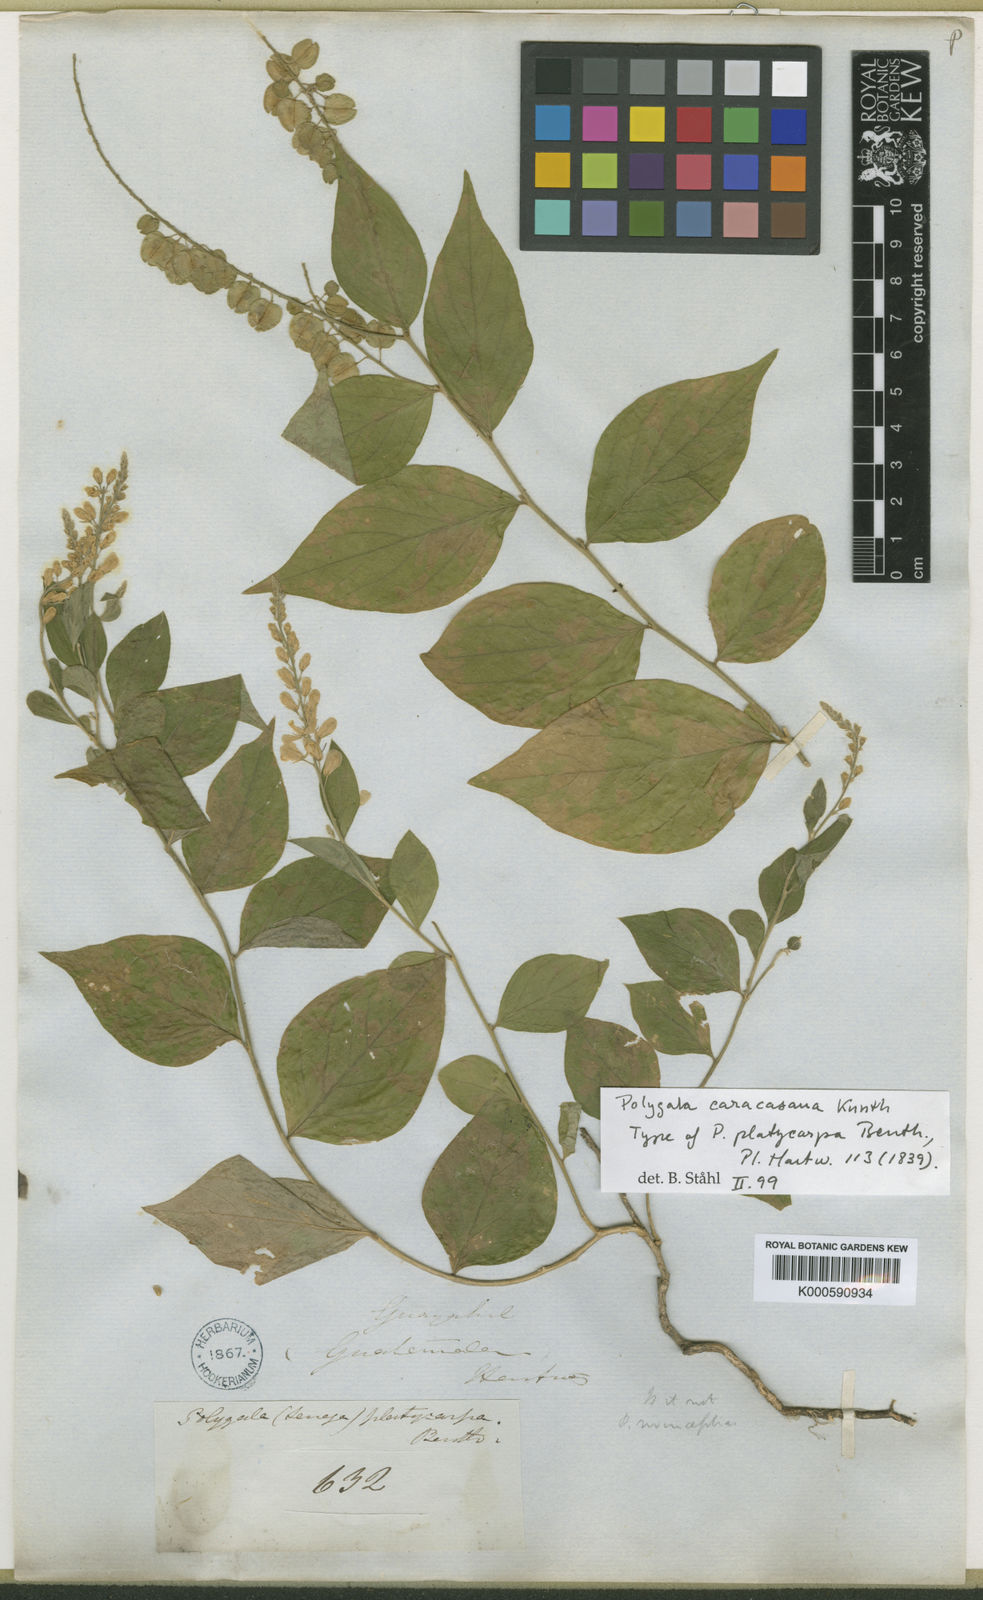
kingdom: Plantae
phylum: Tracheophyta
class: Magnoliopsida
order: Fabales
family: Polygalaceae
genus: Hebecarpa
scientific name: Hebecarpa caracasana
